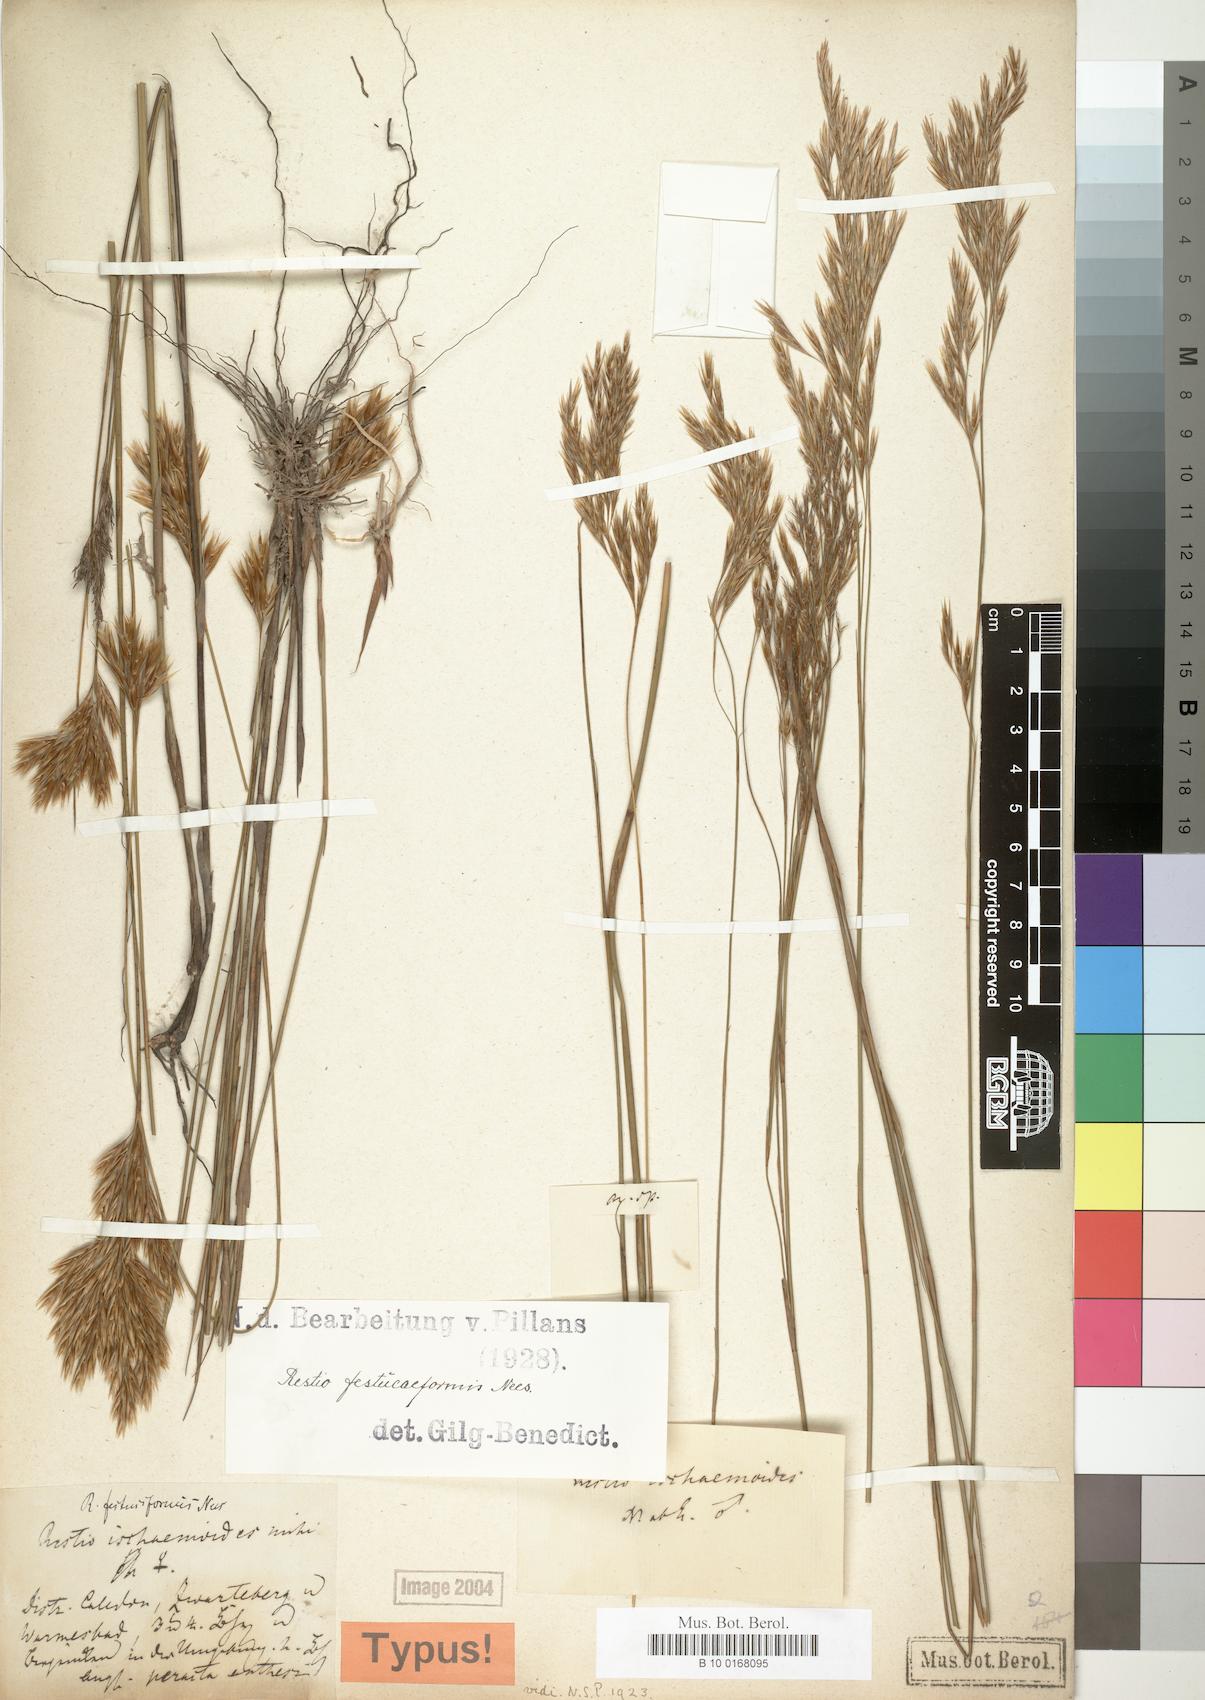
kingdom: Plantae
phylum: Tracheophyta
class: Liliopsida
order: Poales
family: Restionaceae
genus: Restio
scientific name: Restio festuciformis
